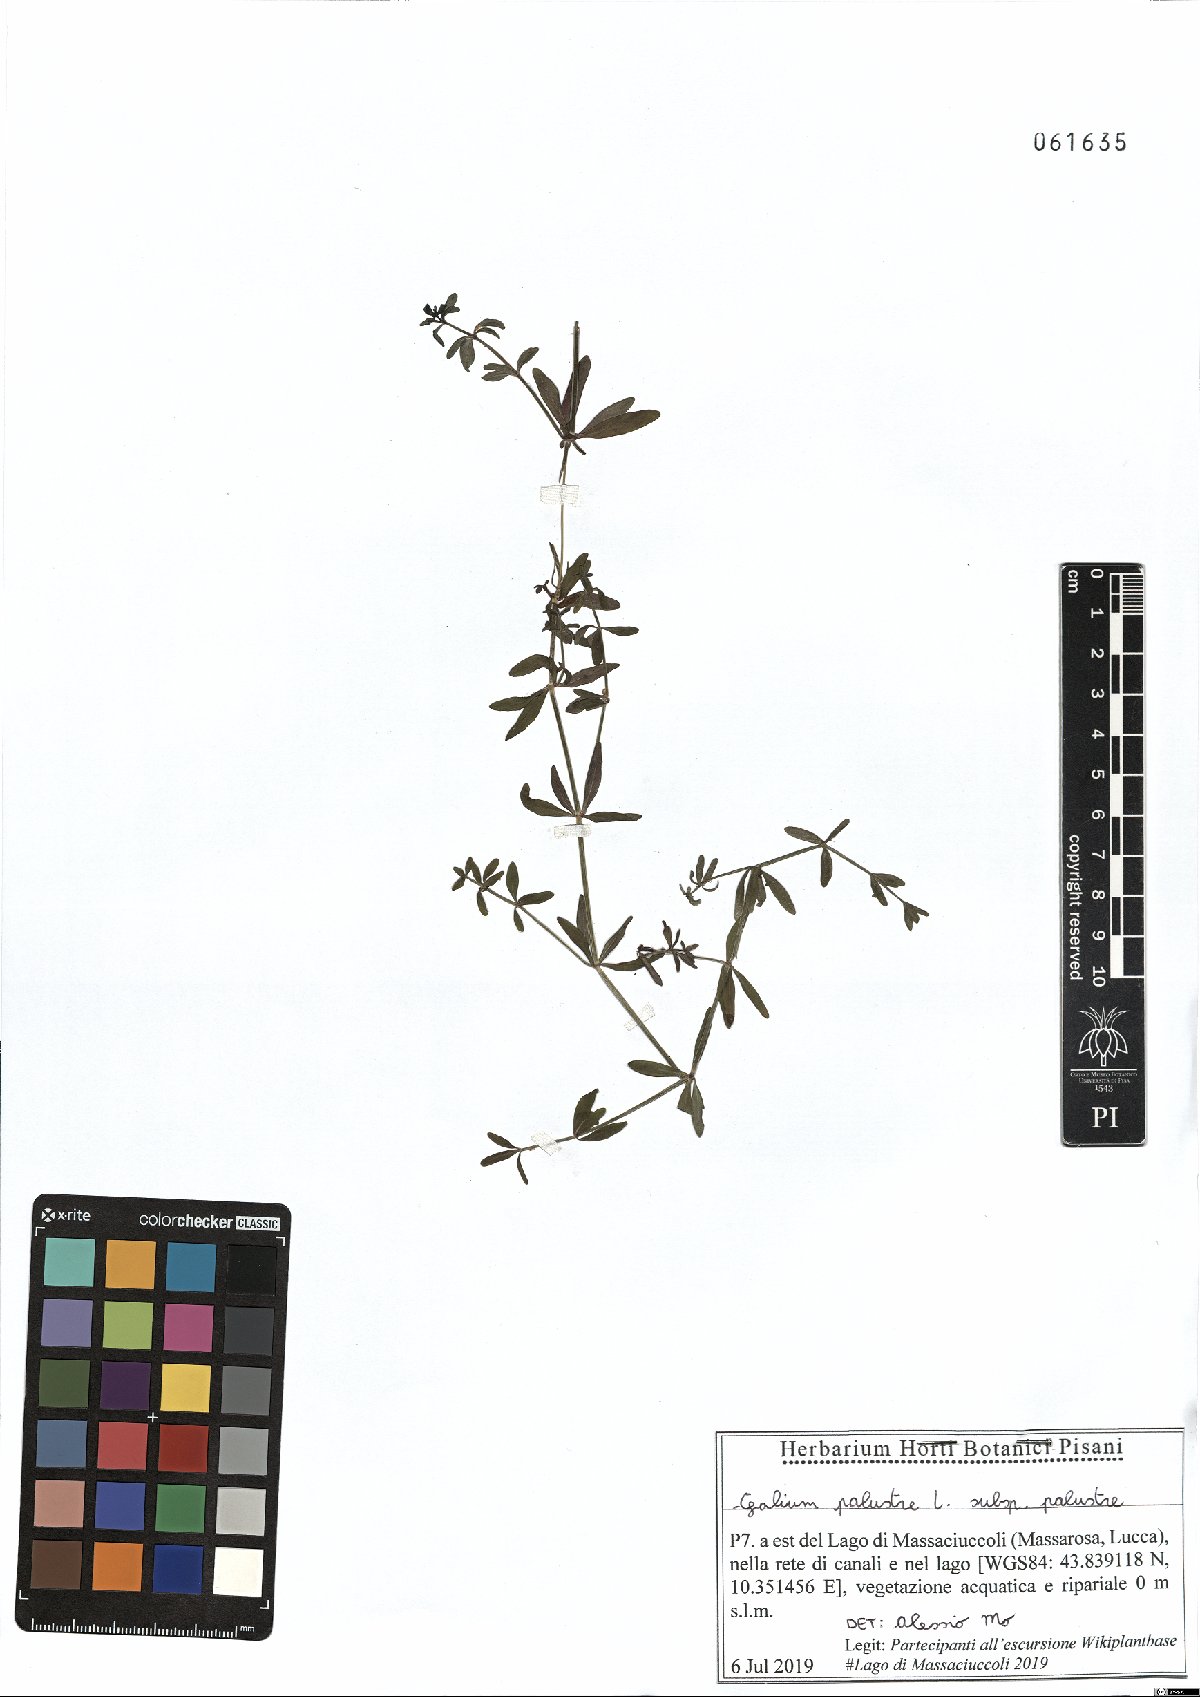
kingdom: Plantae
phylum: Tracheophyta
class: Magnoliopsida
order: Gentianales
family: Rubiaceae
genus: Galium
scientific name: Galium palustre
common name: Common marsh-bedstraw
